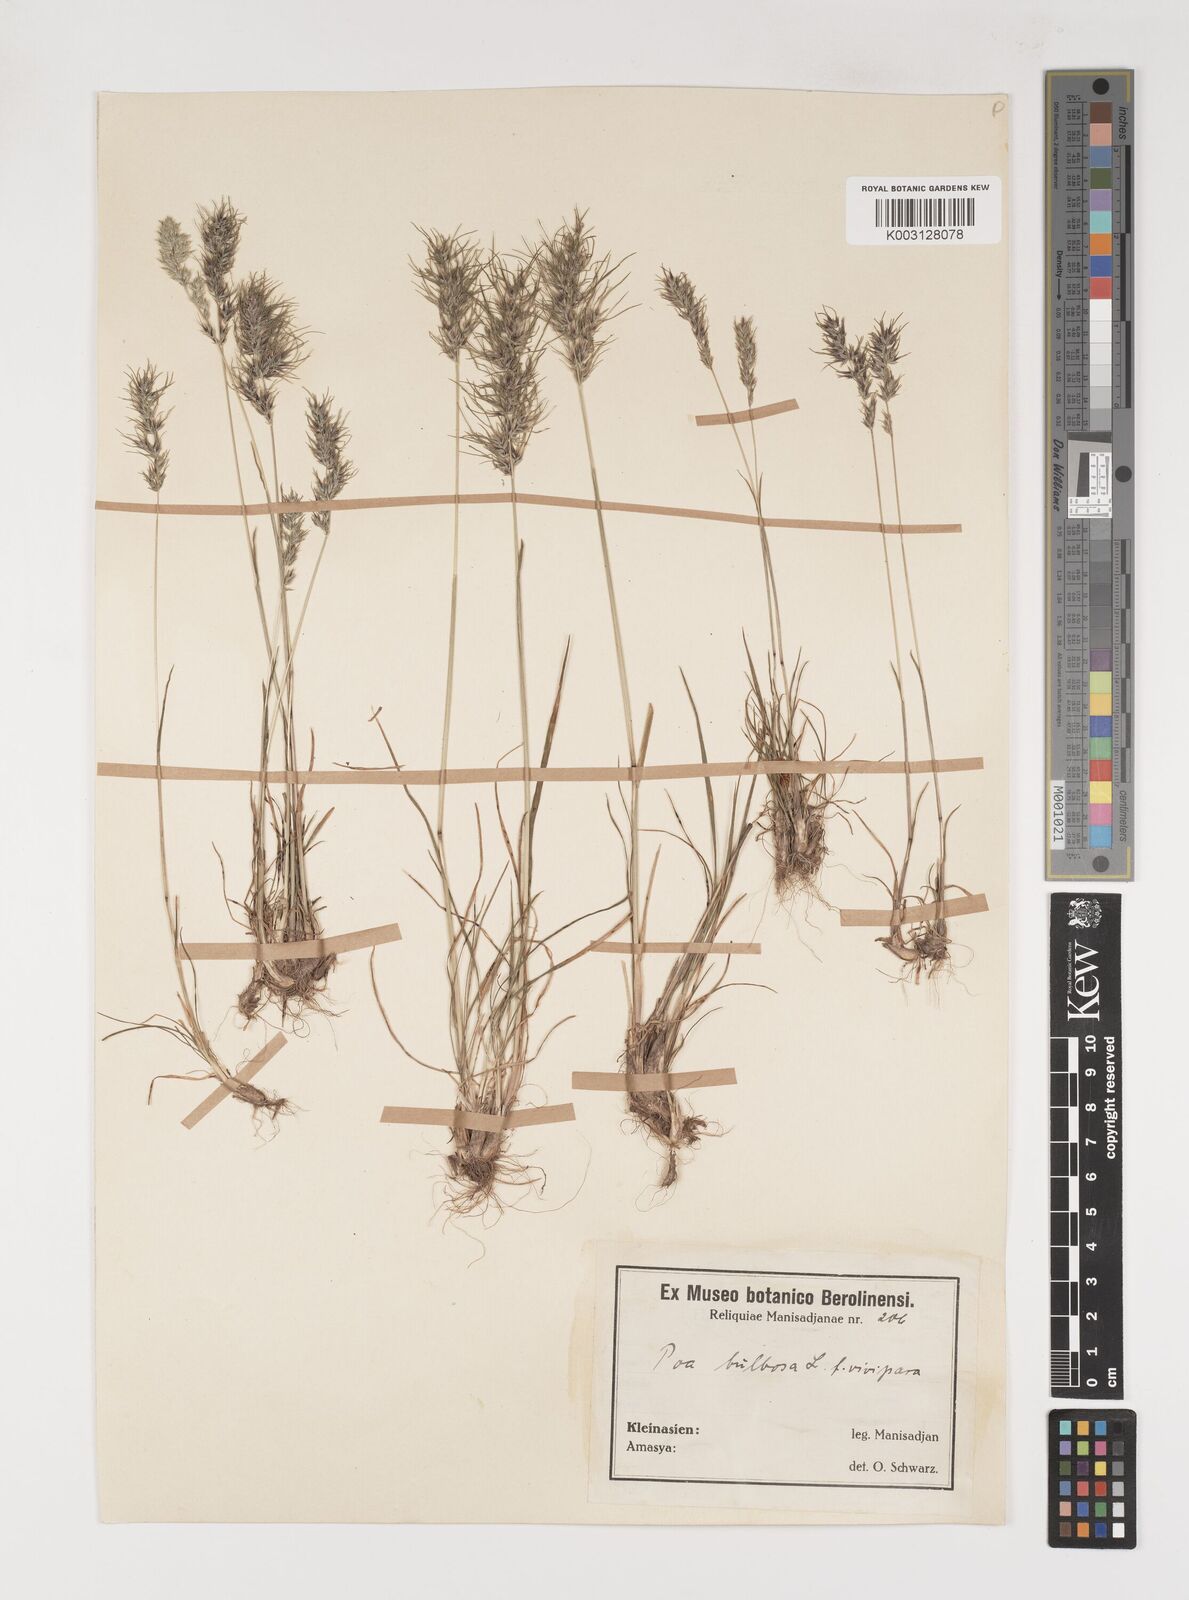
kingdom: Plantae
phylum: Tracheophyta
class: Liliopsida
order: Poales
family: Poaceae
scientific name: Poaceae
